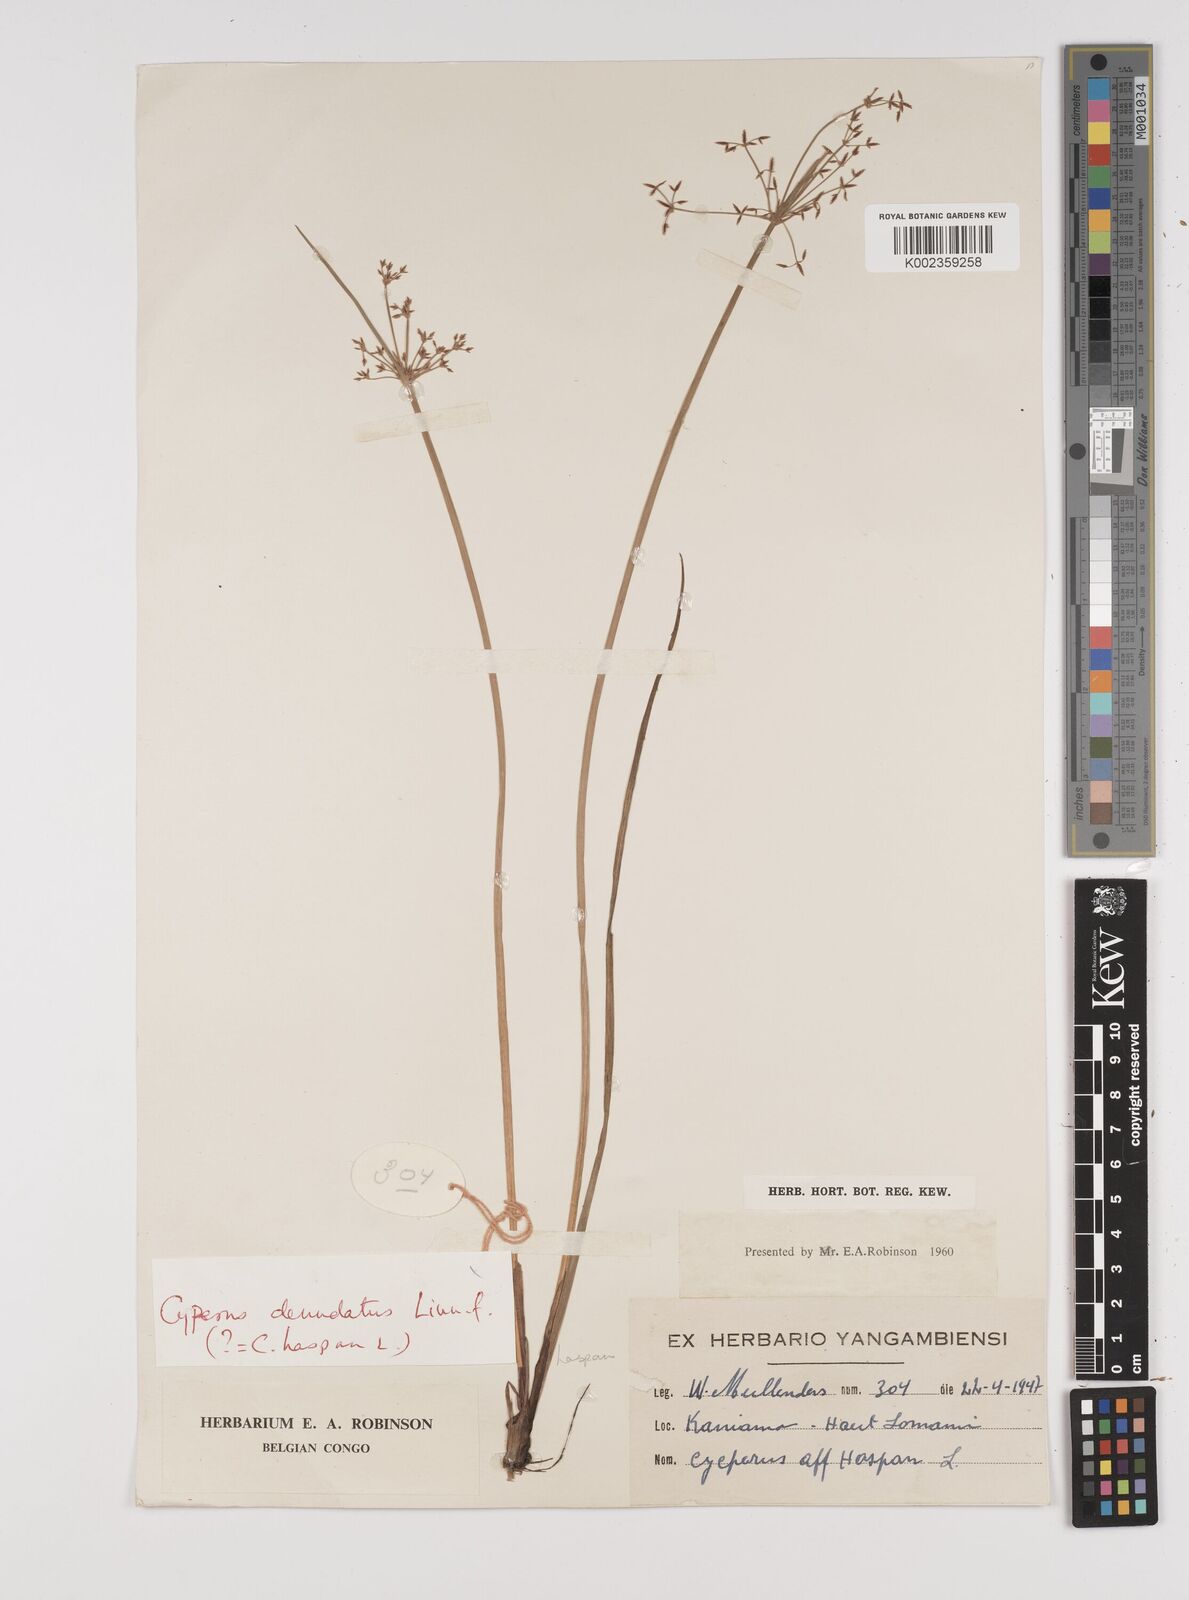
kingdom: Plantae
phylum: Tracheophyta
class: Liliopsida
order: Poales
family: Cyperaceae
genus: Cyperus
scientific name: Cyperus haspan
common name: Haspan flatsedge
